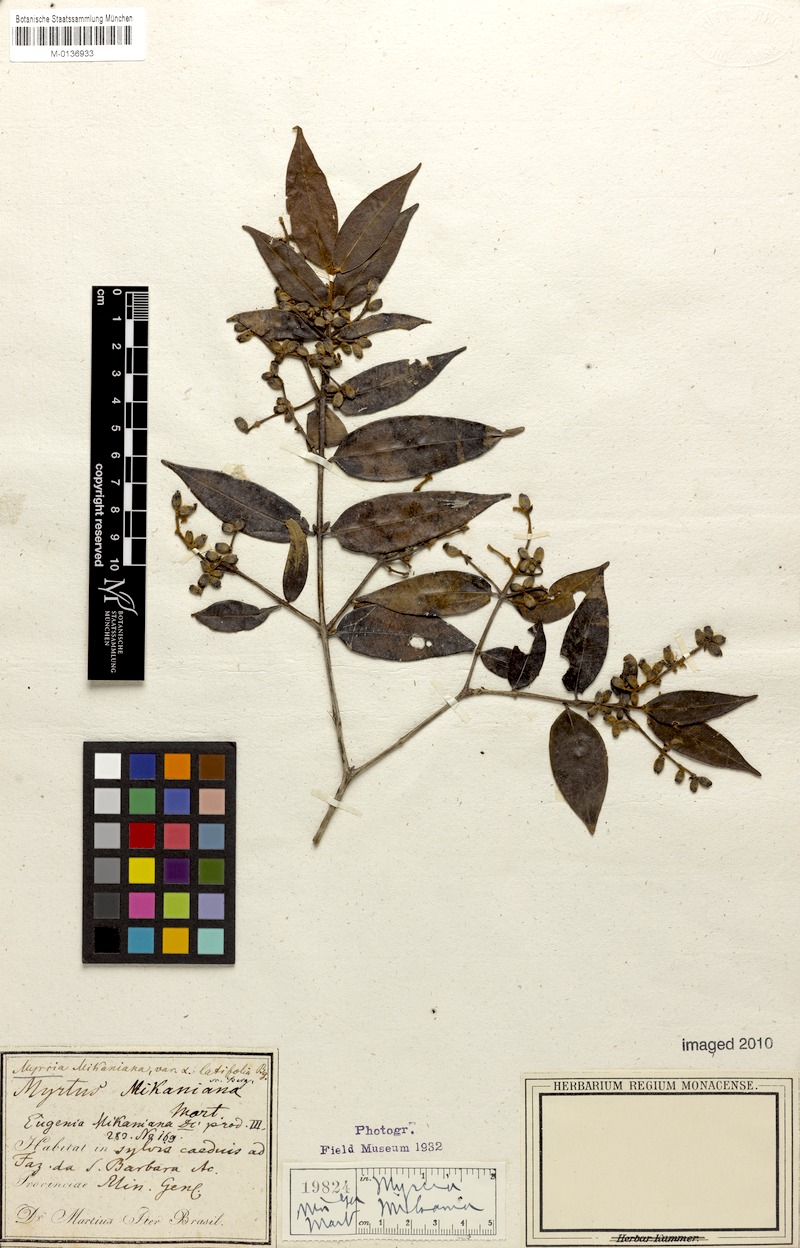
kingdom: Plantae
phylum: Tracheophyta
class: Magnoliopsida
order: Myrtales
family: Myrtaceae
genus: Myrcia
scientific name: Myrcia splendens
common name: Surinam cherry
